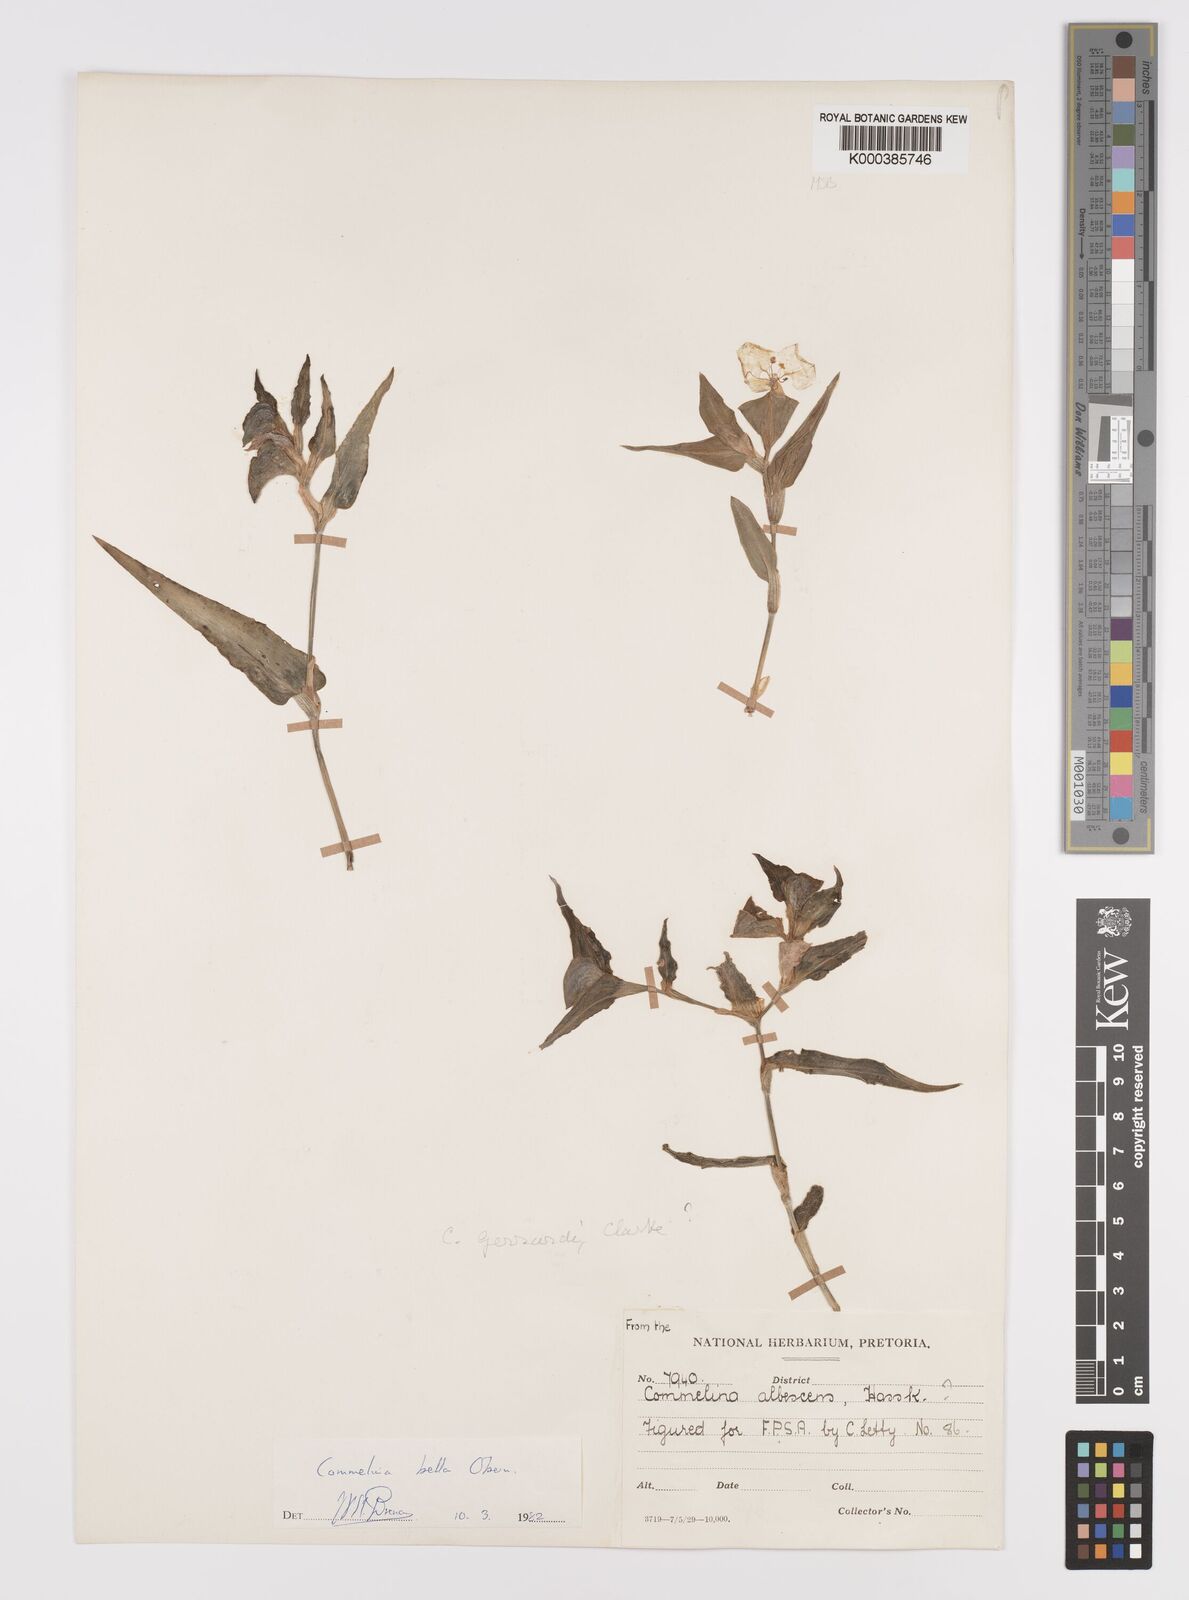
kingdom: Plantae
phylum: Tracheophyta
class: Liliopsida
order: Commelinales
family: Commelinaceae
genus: Commelina
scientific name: Commelina bella
